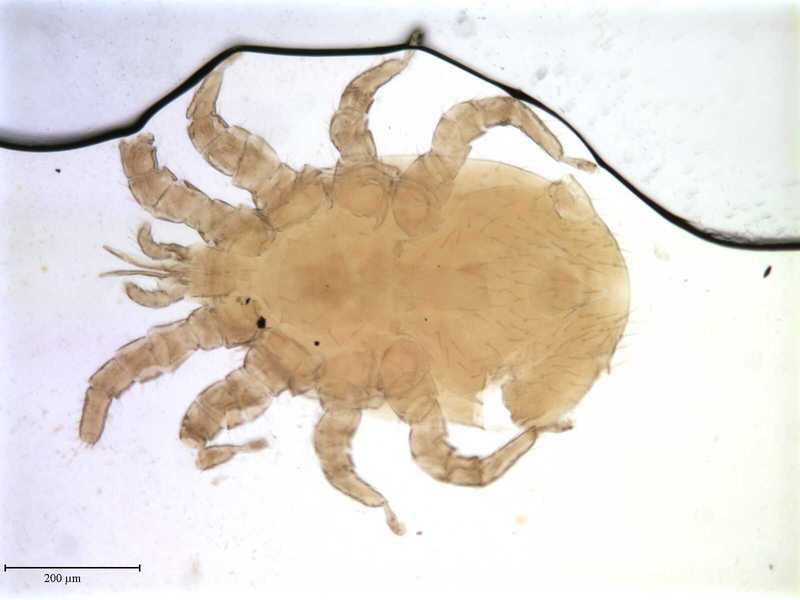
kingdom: Animalia
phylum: Arthropoda
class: Arachnida
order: Mesostigmata
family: Macronyssidae
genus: Macronyssus
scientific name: Macronyssus diversipilis
